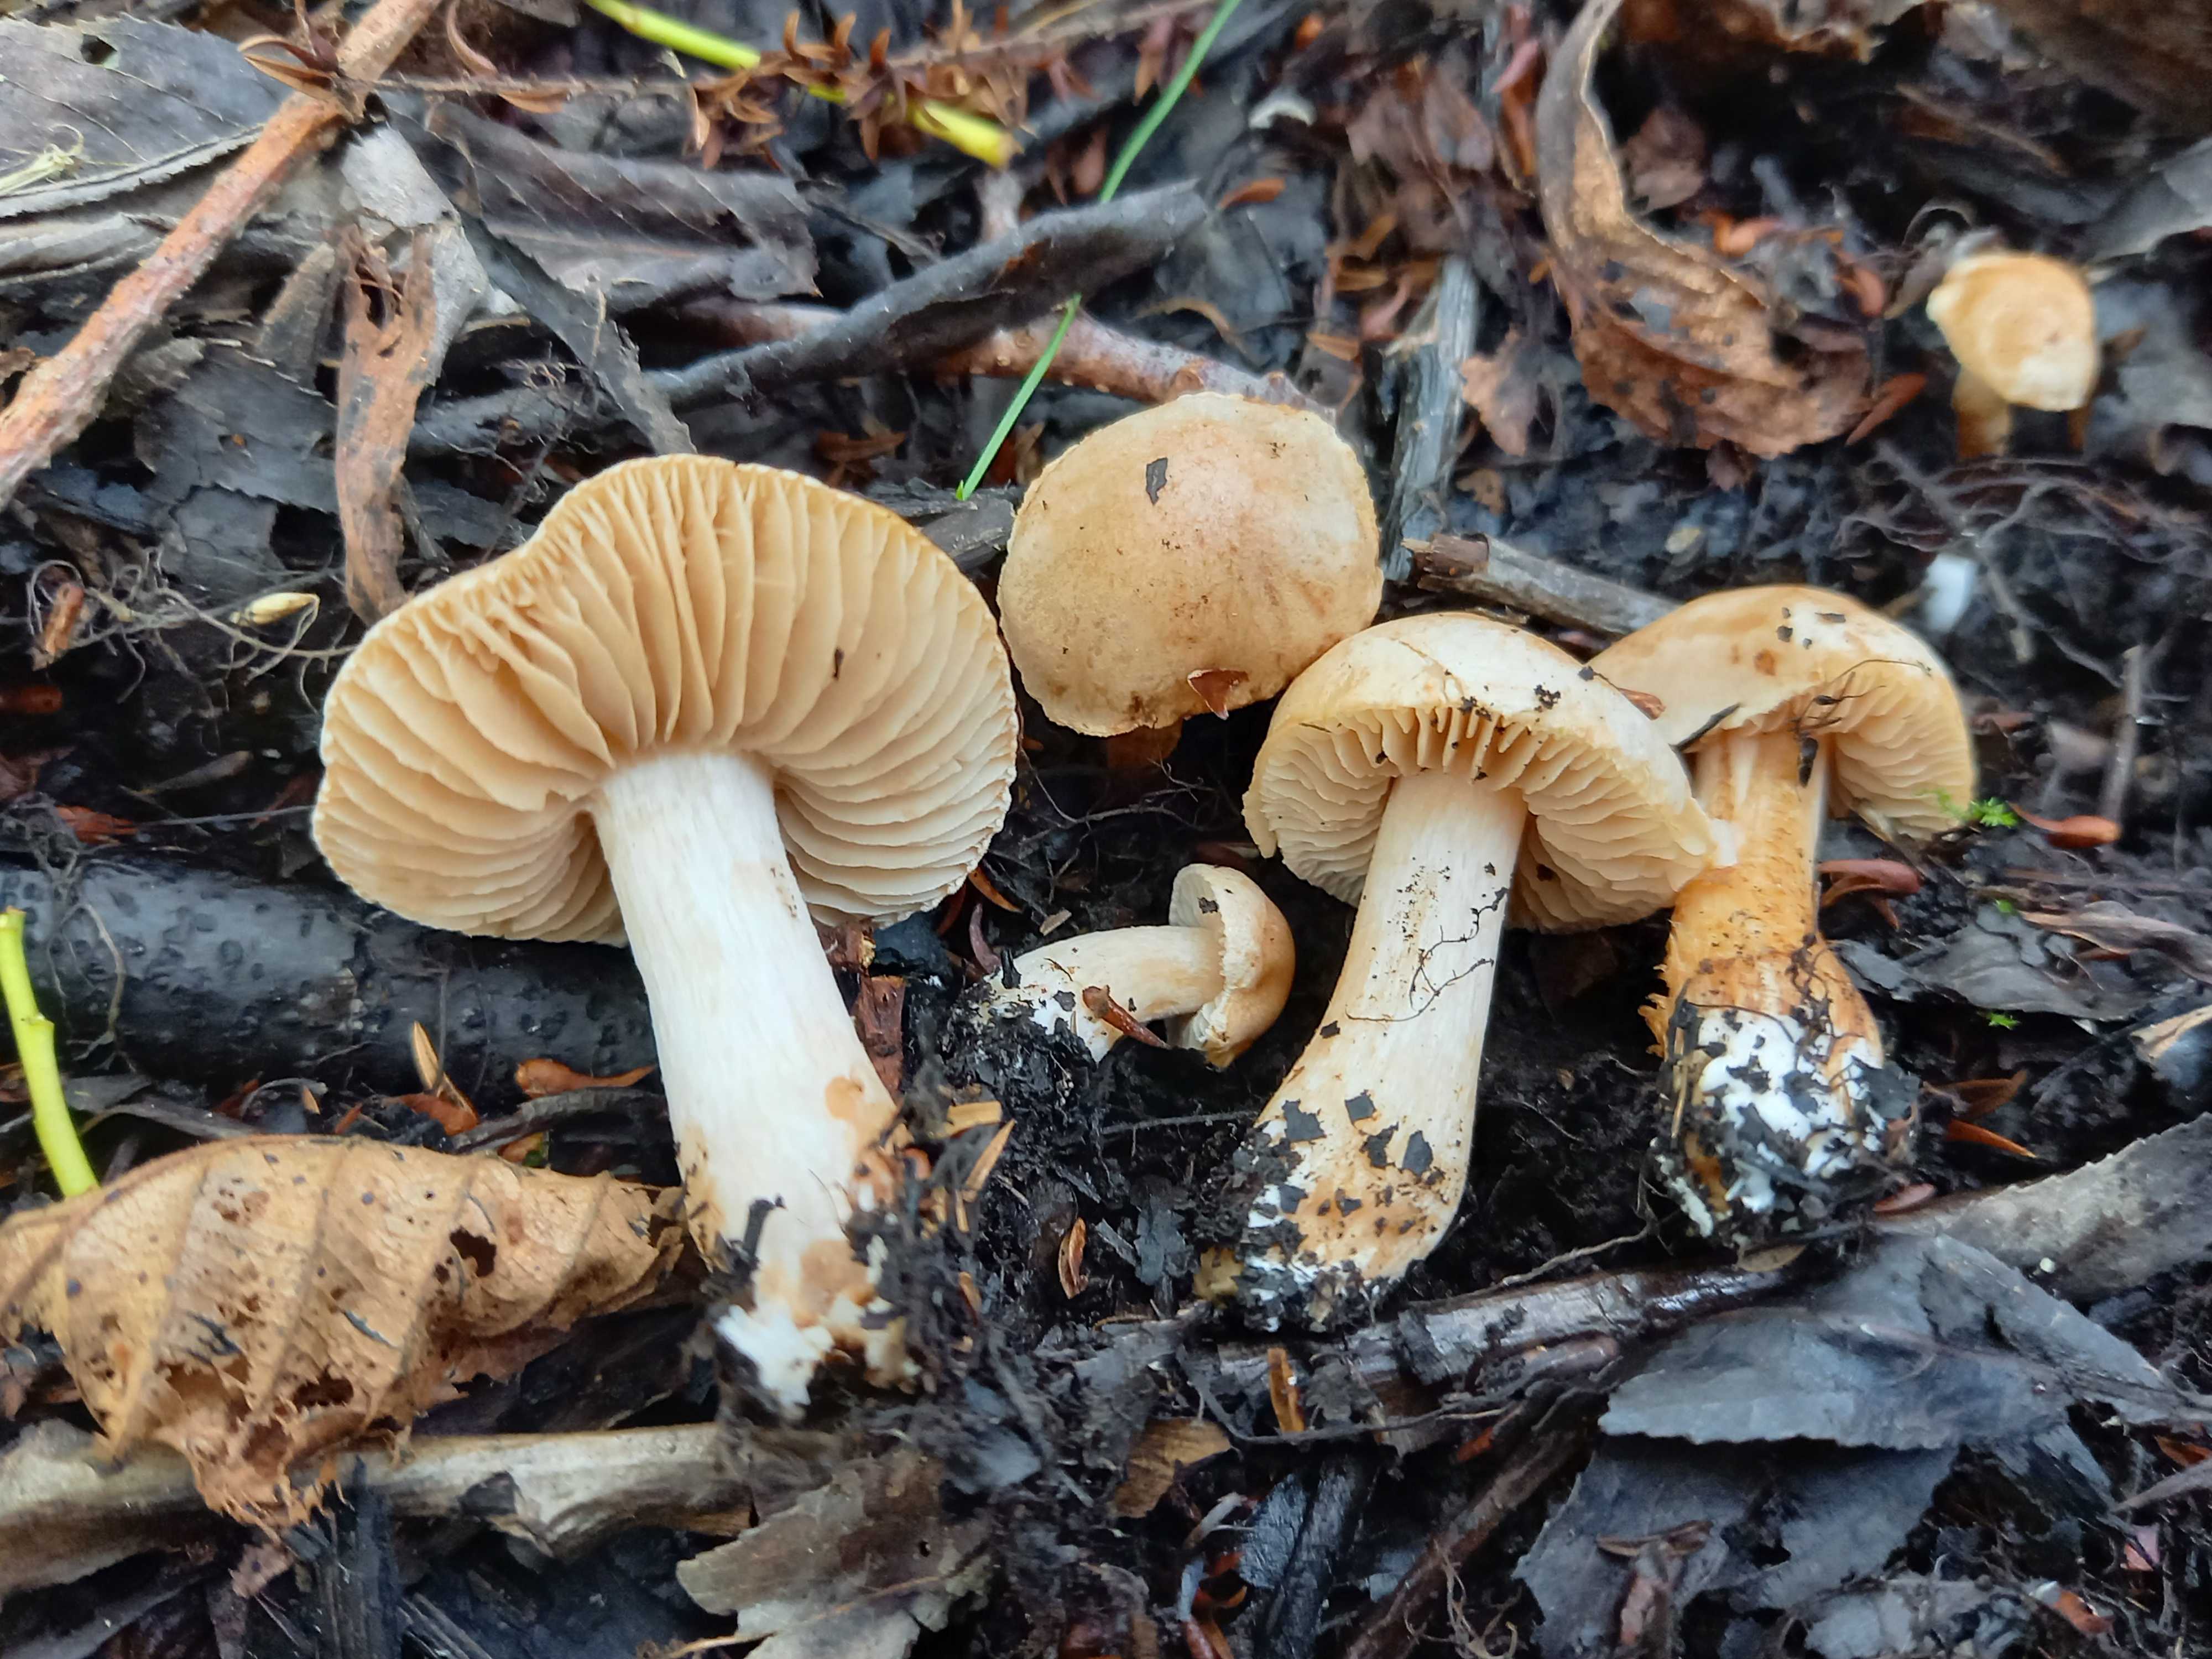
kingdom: Fungi
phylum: Basidiomycota
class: Agaricomycetes
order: Agaricales
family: Hymenogastraceae
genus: Hebeloma
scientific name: Hebeloma
